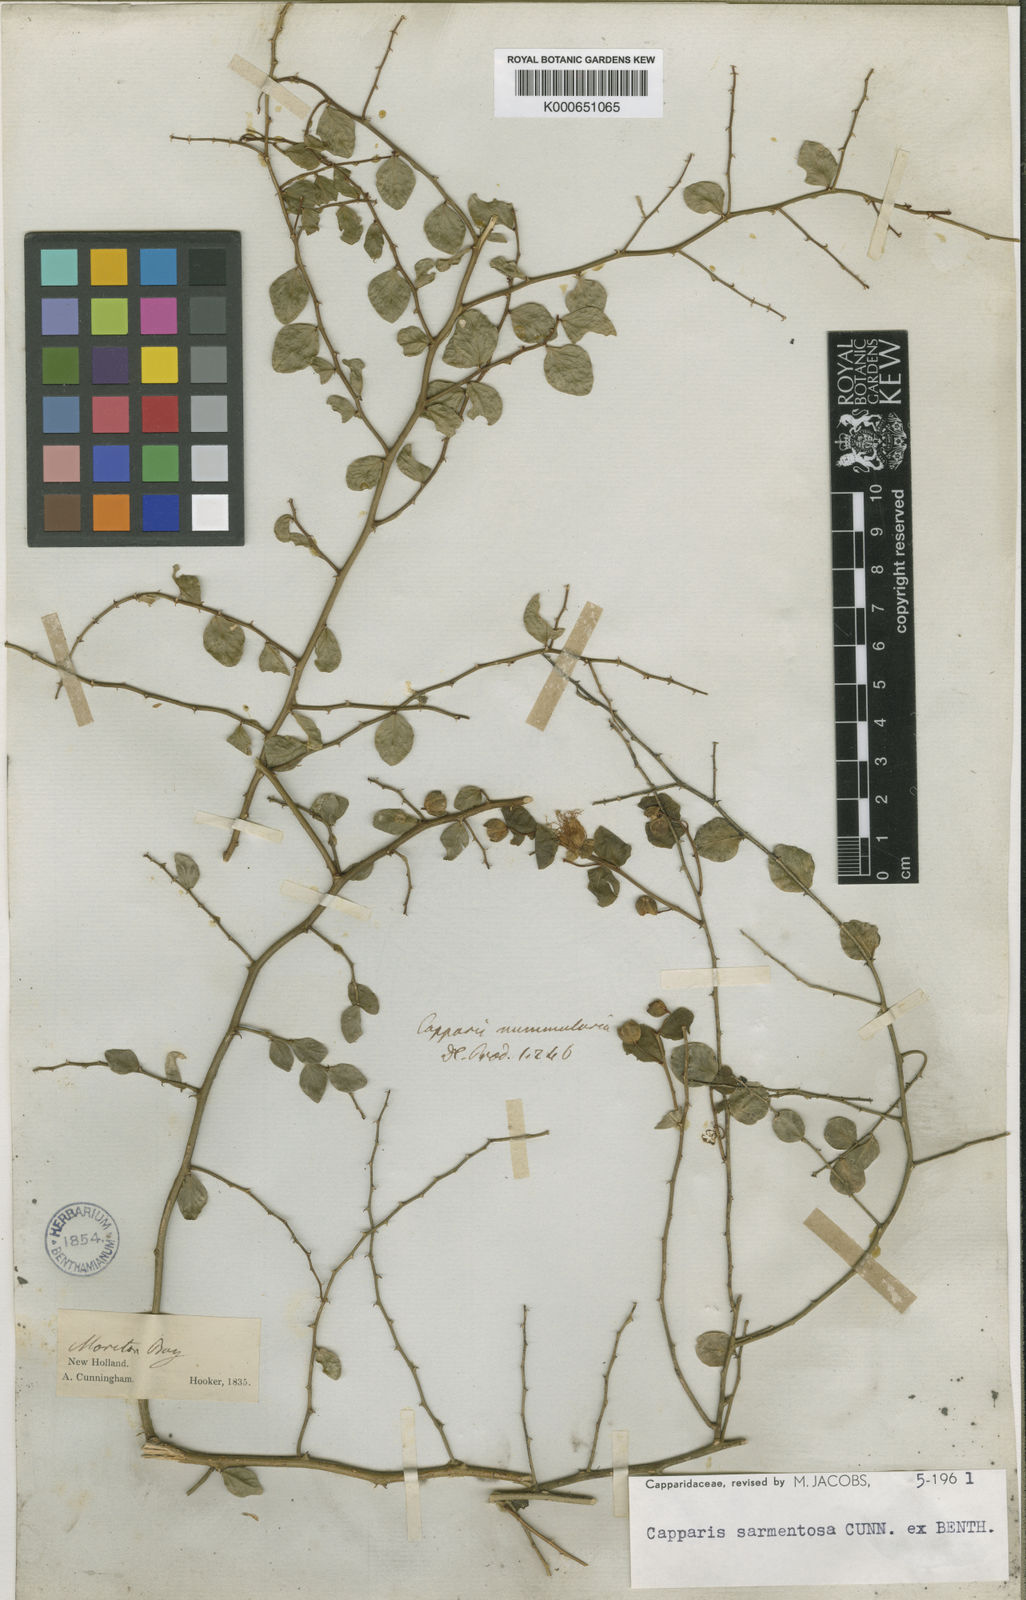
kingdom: Plantae
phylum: Tracheophyta
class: Magnoliopsida
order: Brassicales
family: Capparaceae
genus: Capparis
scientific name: Capparis sarmentosa
